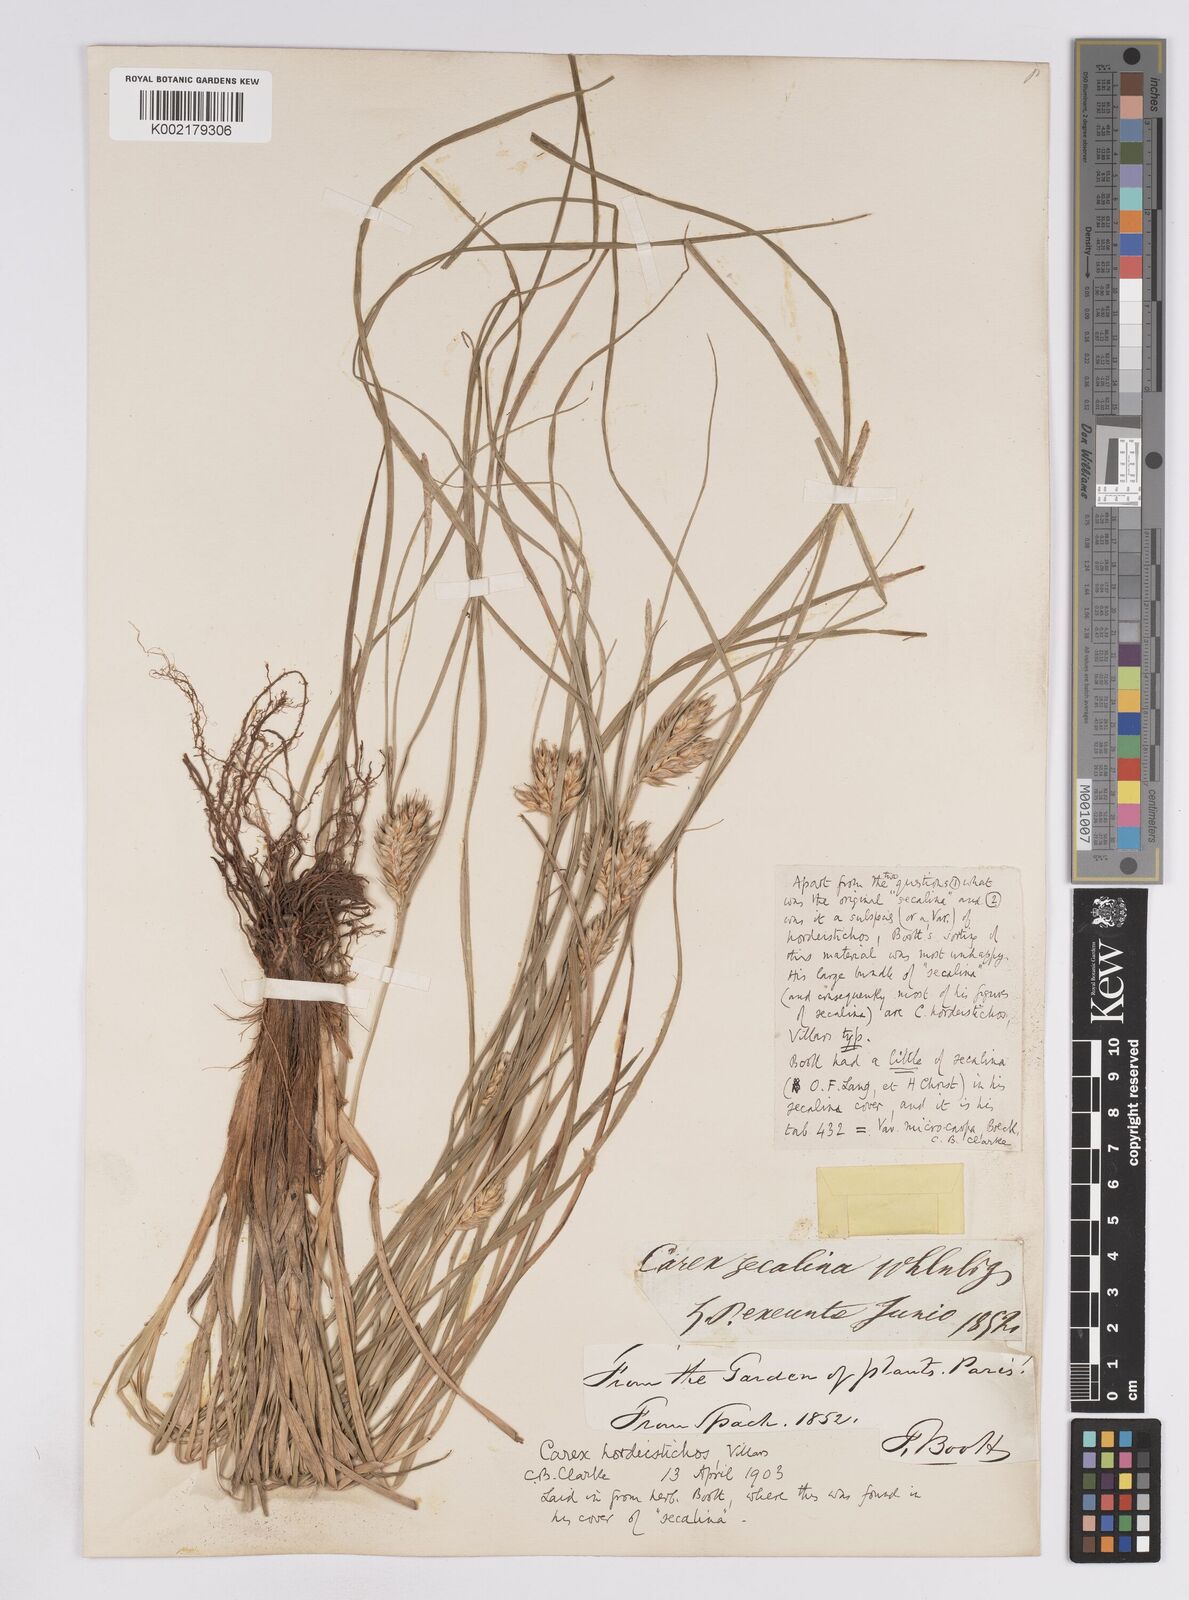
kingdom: Plantae
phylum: Tracheophyta
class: Liliopsida
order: Poales
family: Cyperaceae
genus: Carex
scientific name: Carex hordeistichos
